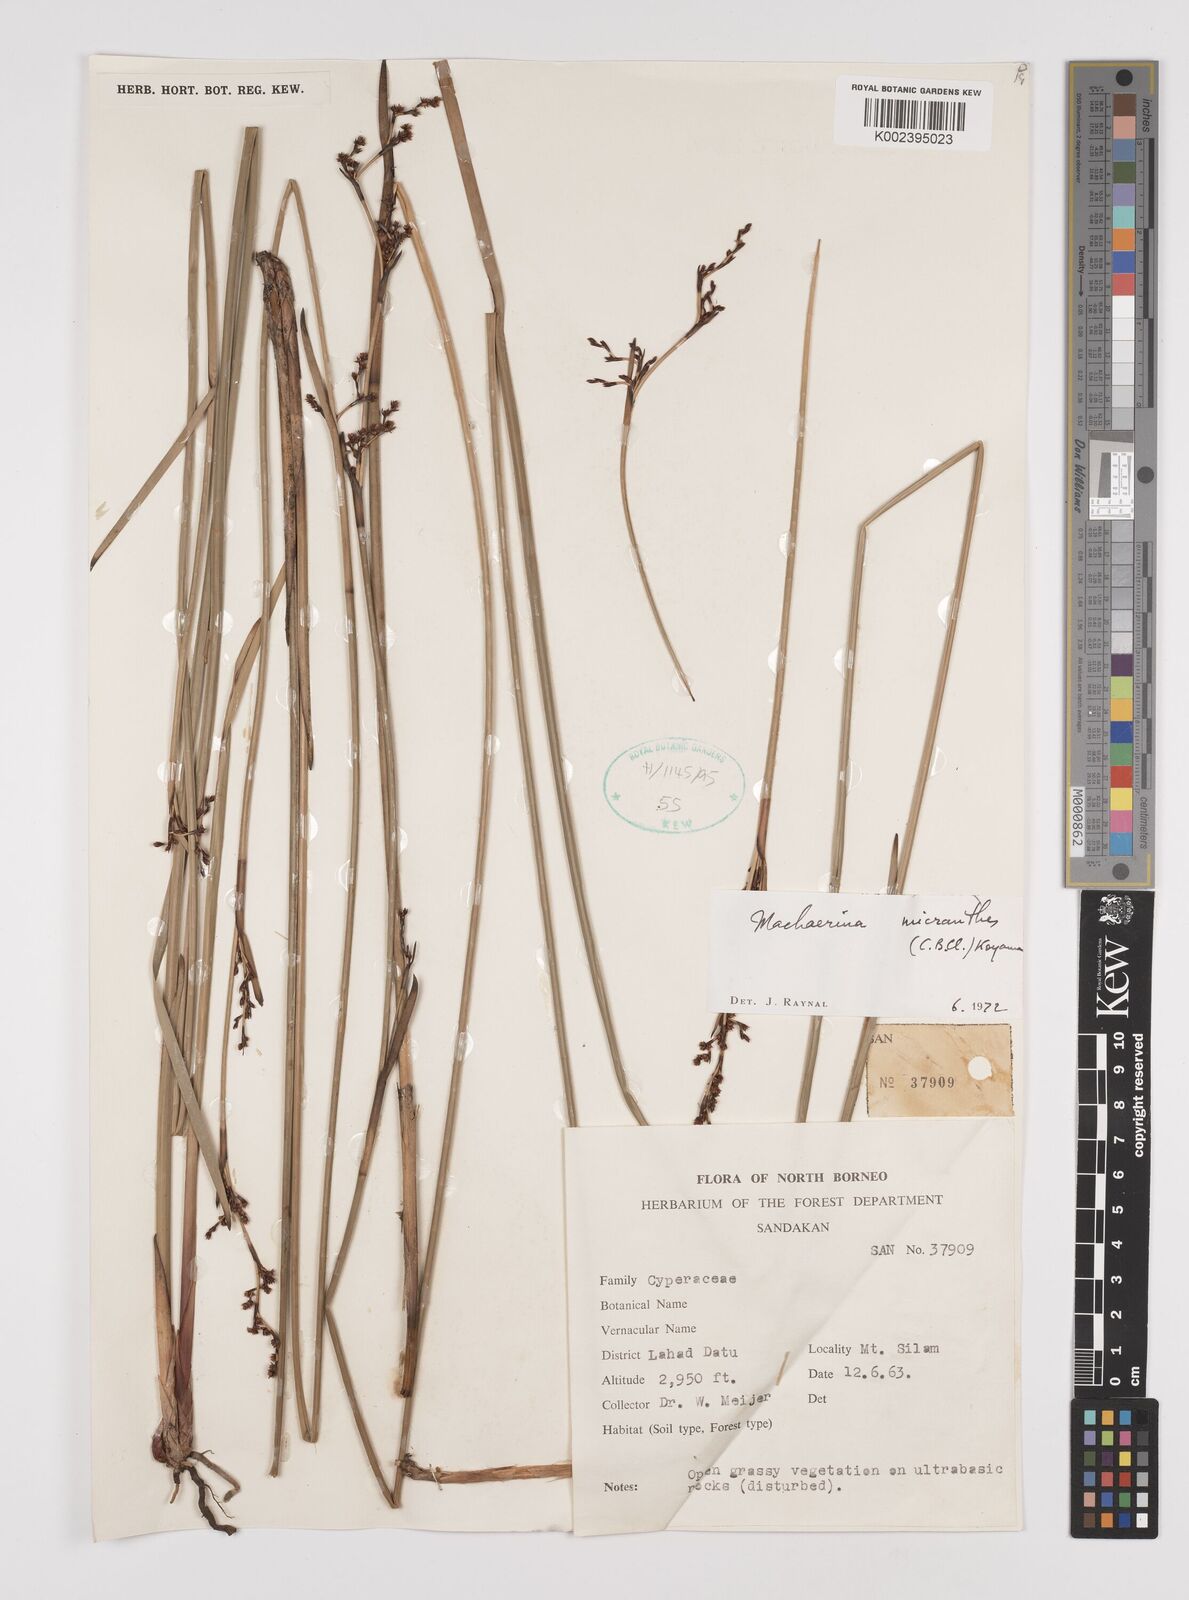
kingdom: Plantae
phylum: Tracheophyta
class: Liliopsida
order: Poales
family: Cyperaceae
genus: Machaerina
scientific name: Machaerina disticha
